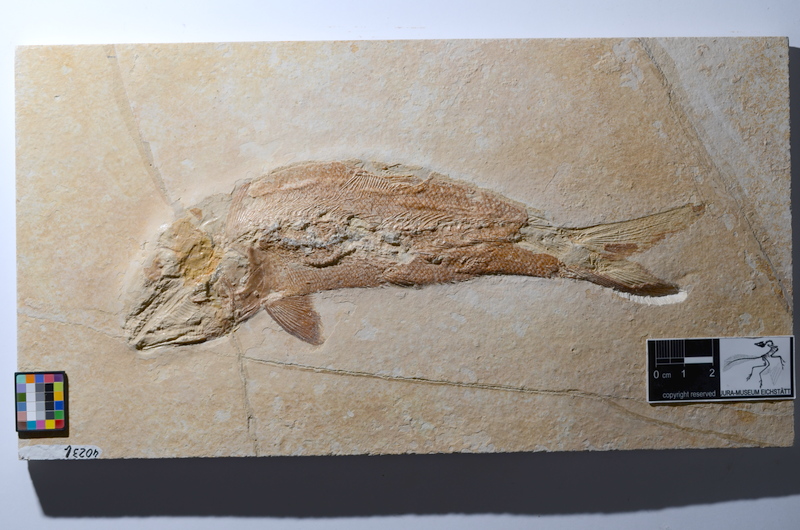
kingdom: Animalia
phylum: Chordata
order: Amiiformes
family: Caturidae
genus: Caturus
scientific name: Caturus furcatus
